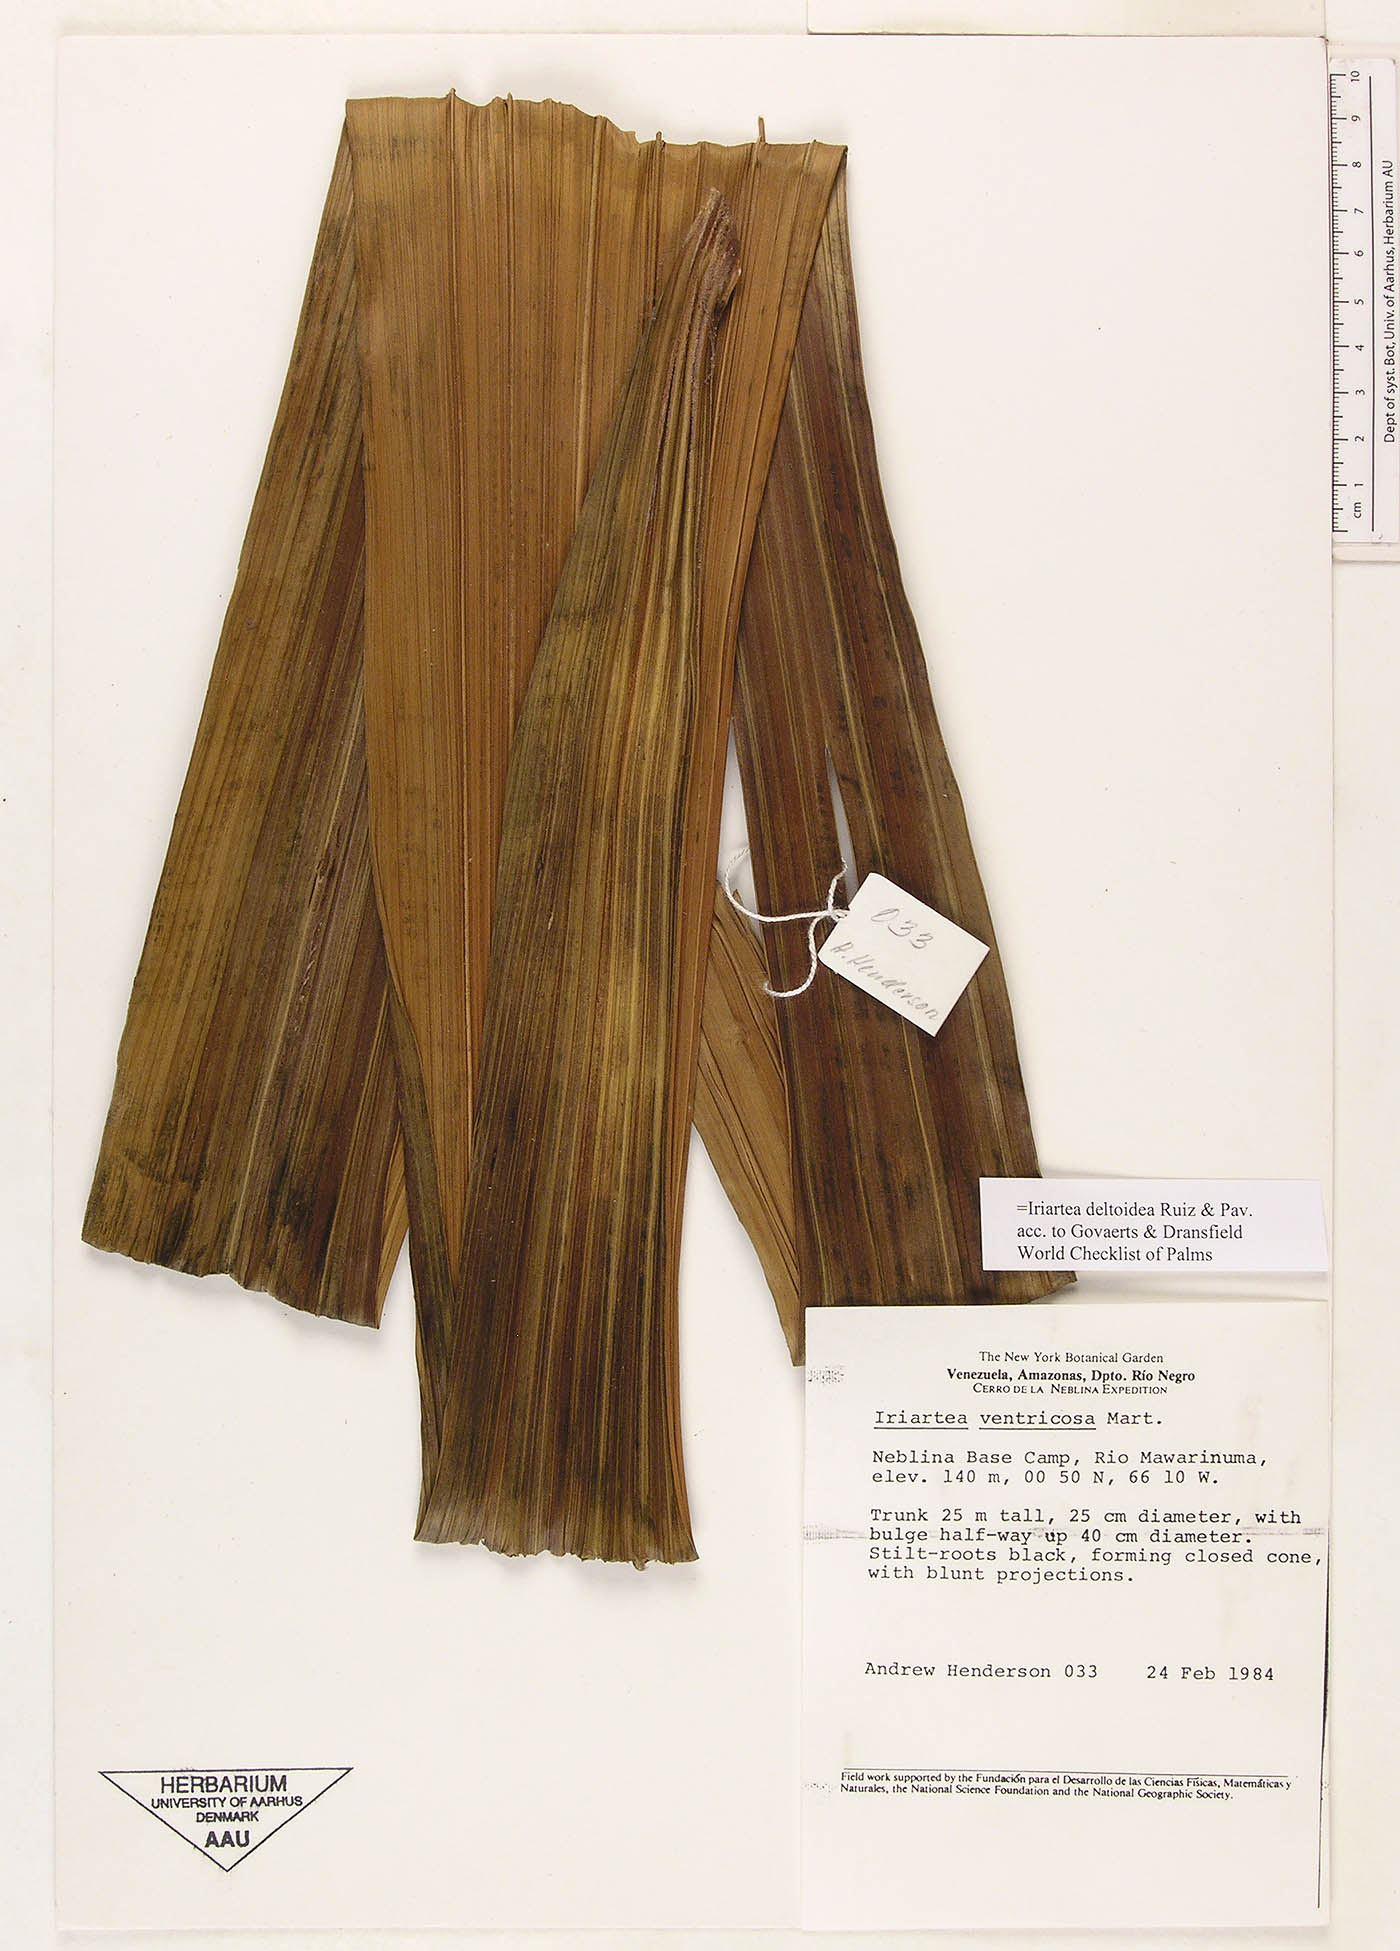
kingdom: Plantae
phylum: Tracheophyta
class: Liliopsida
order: Arecales
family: Arecaceae
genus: Iriartea
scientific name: Iriartea deltoidea
